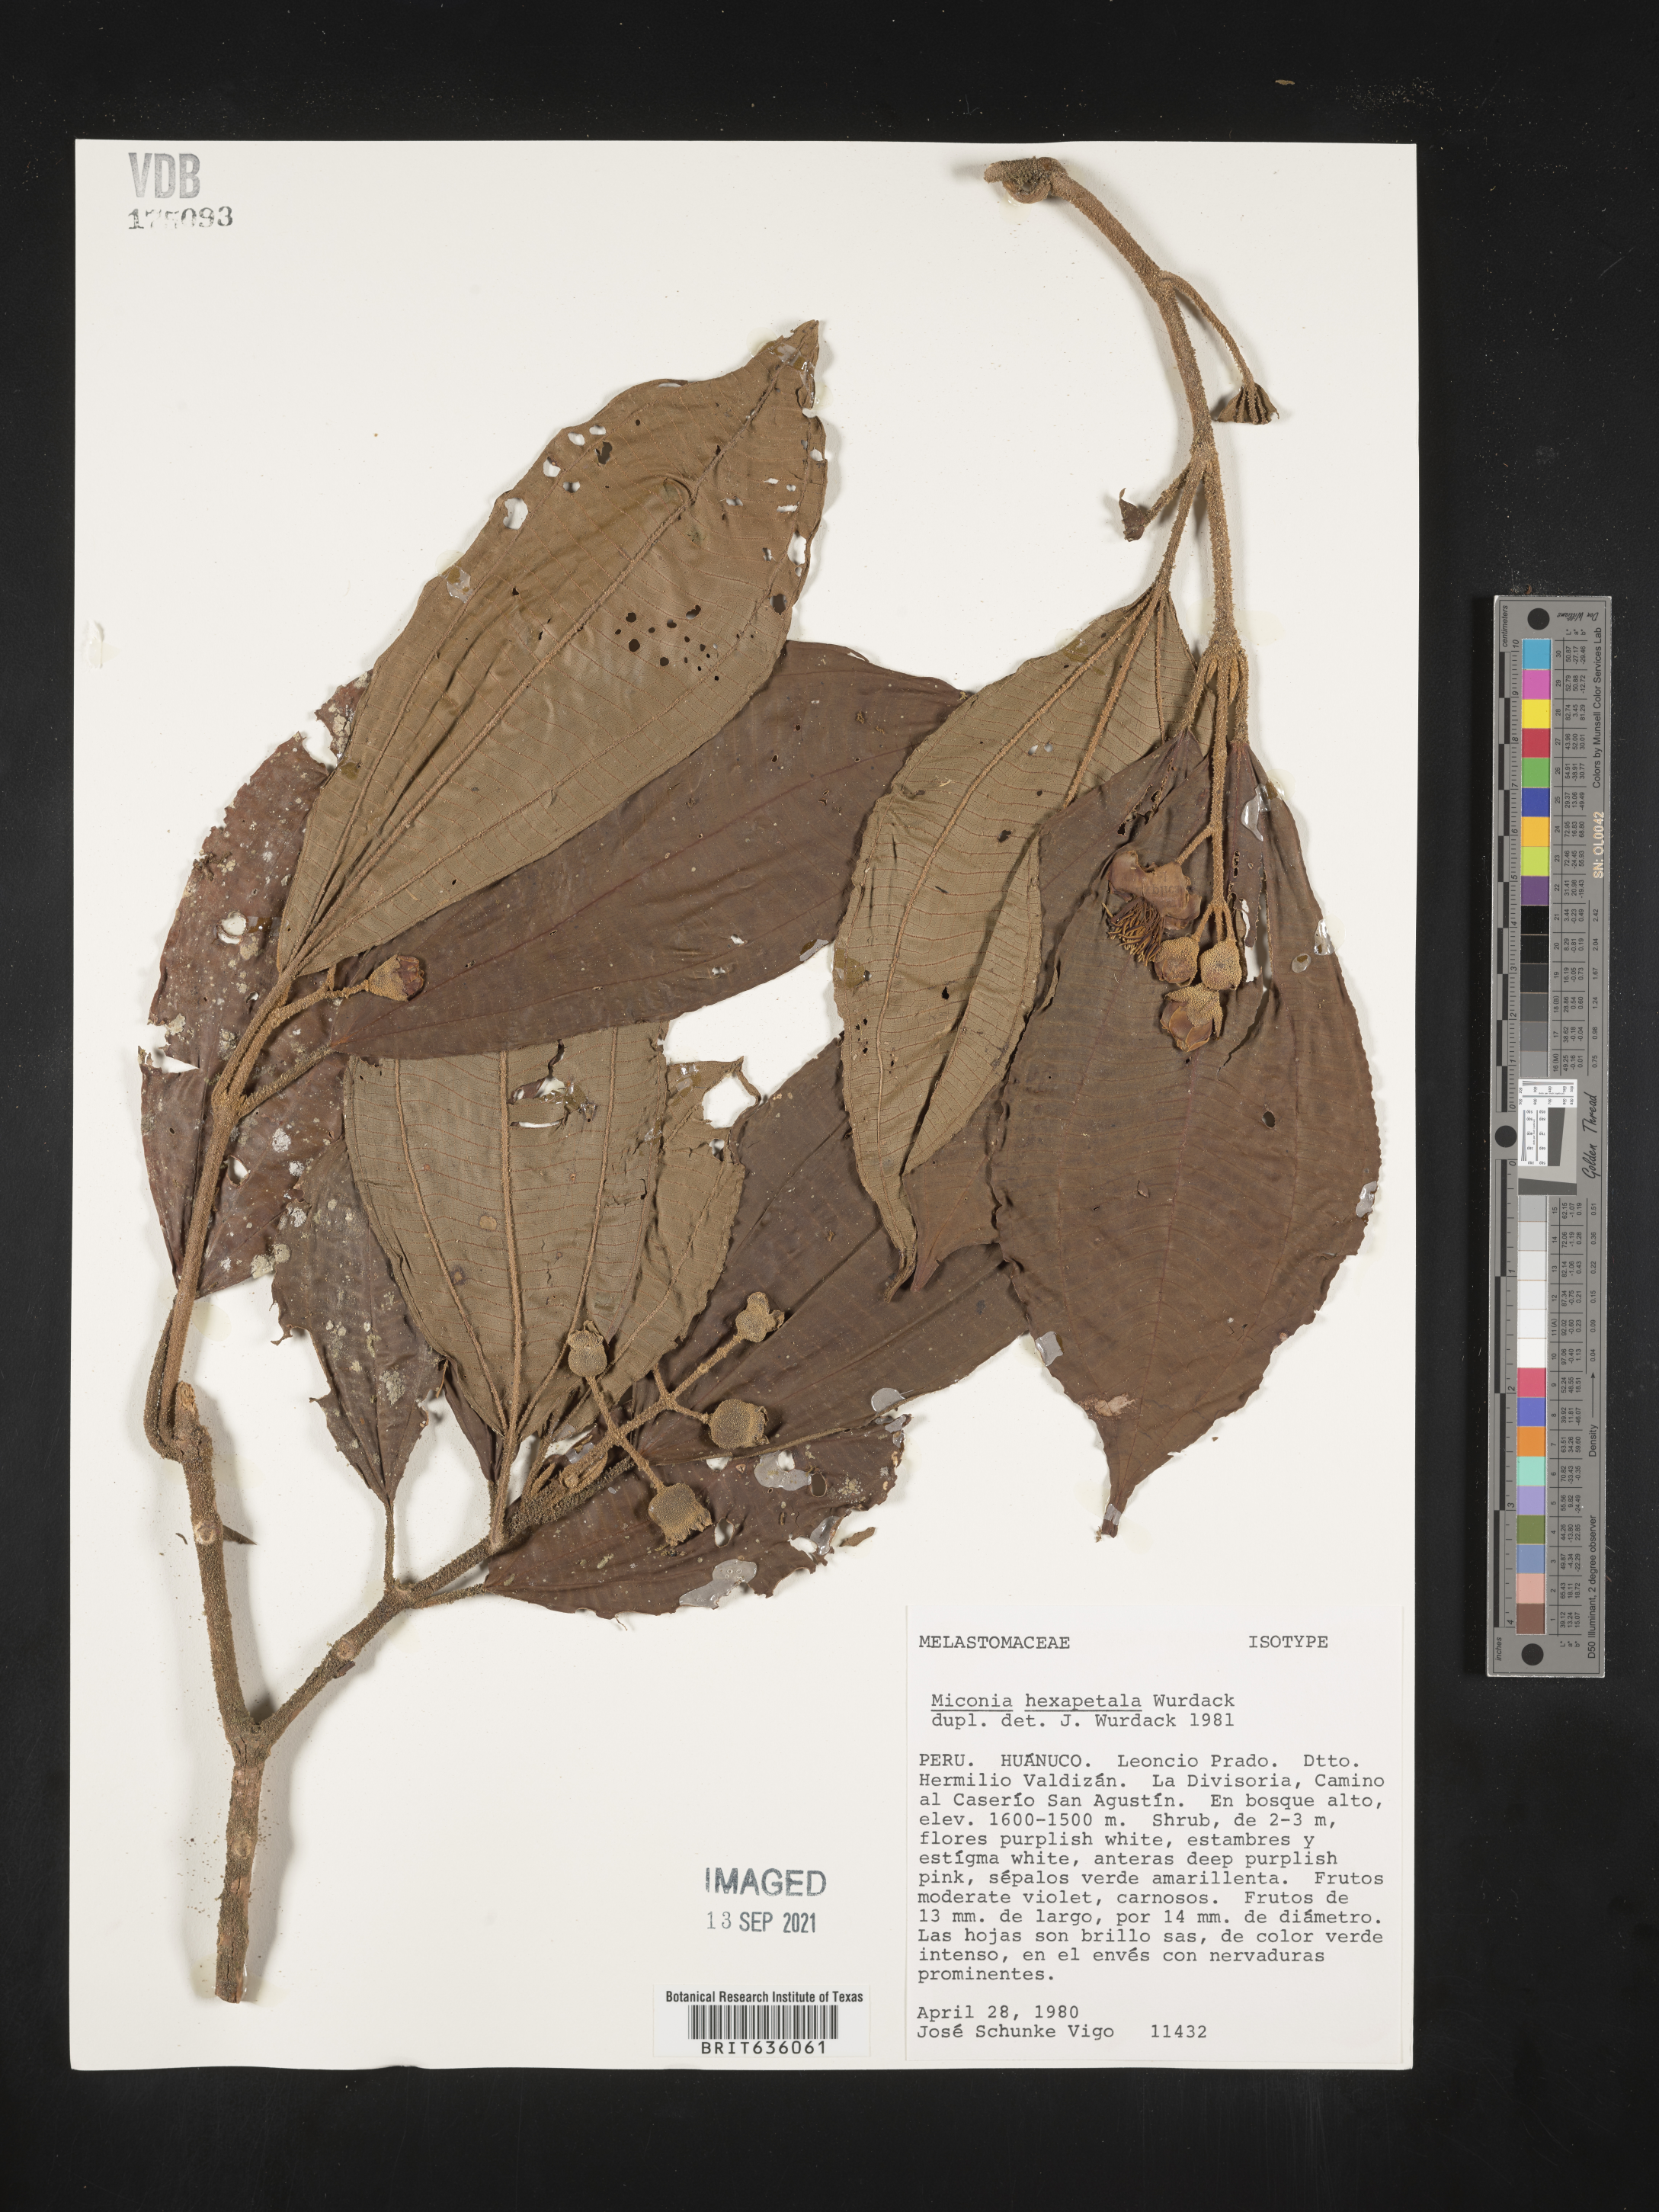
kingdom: Plantae
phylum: Tracheophyta
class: Magnoliopsida
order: Myrtales
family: Melastomataceae
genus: Miconia
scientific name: Miconia
